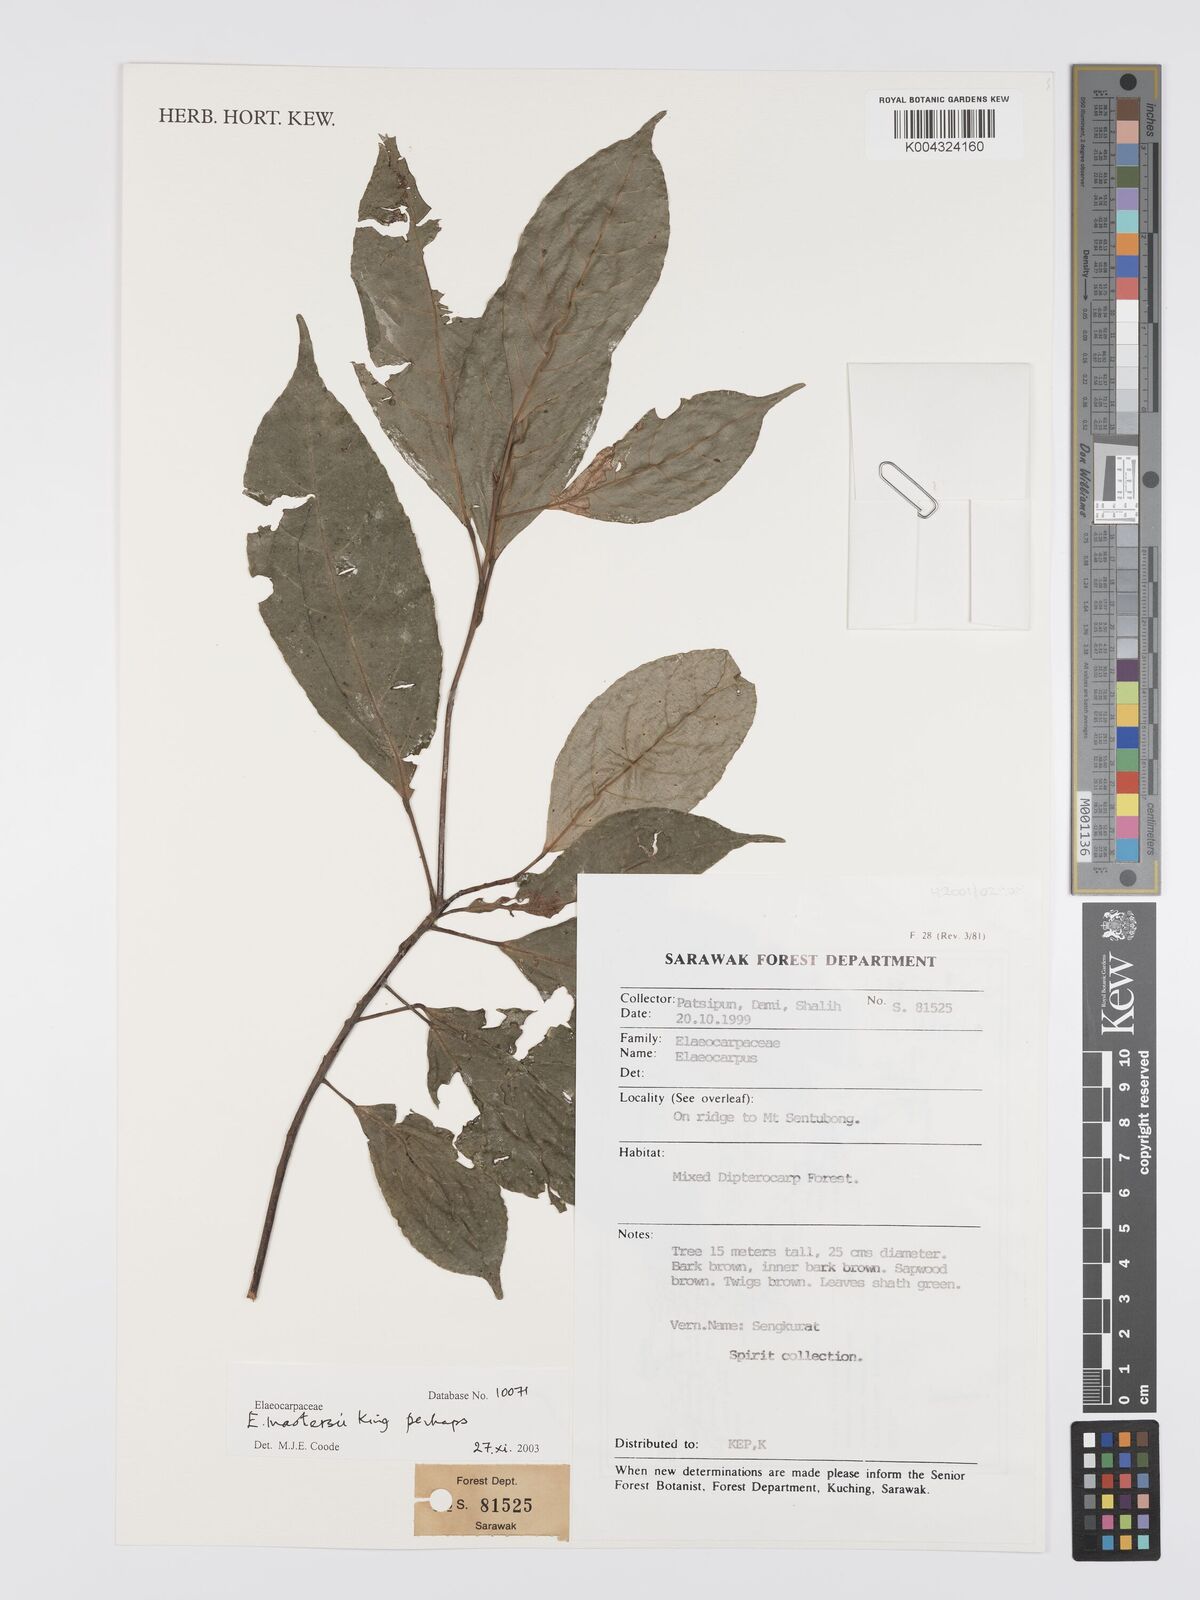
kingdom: Plantae
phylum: Tracheophyta
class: Magnoliopsida
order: Oxalidales
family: Elaeocarpaceae
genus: Elaeocarpus
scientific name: Elaeocarpus mastersii
